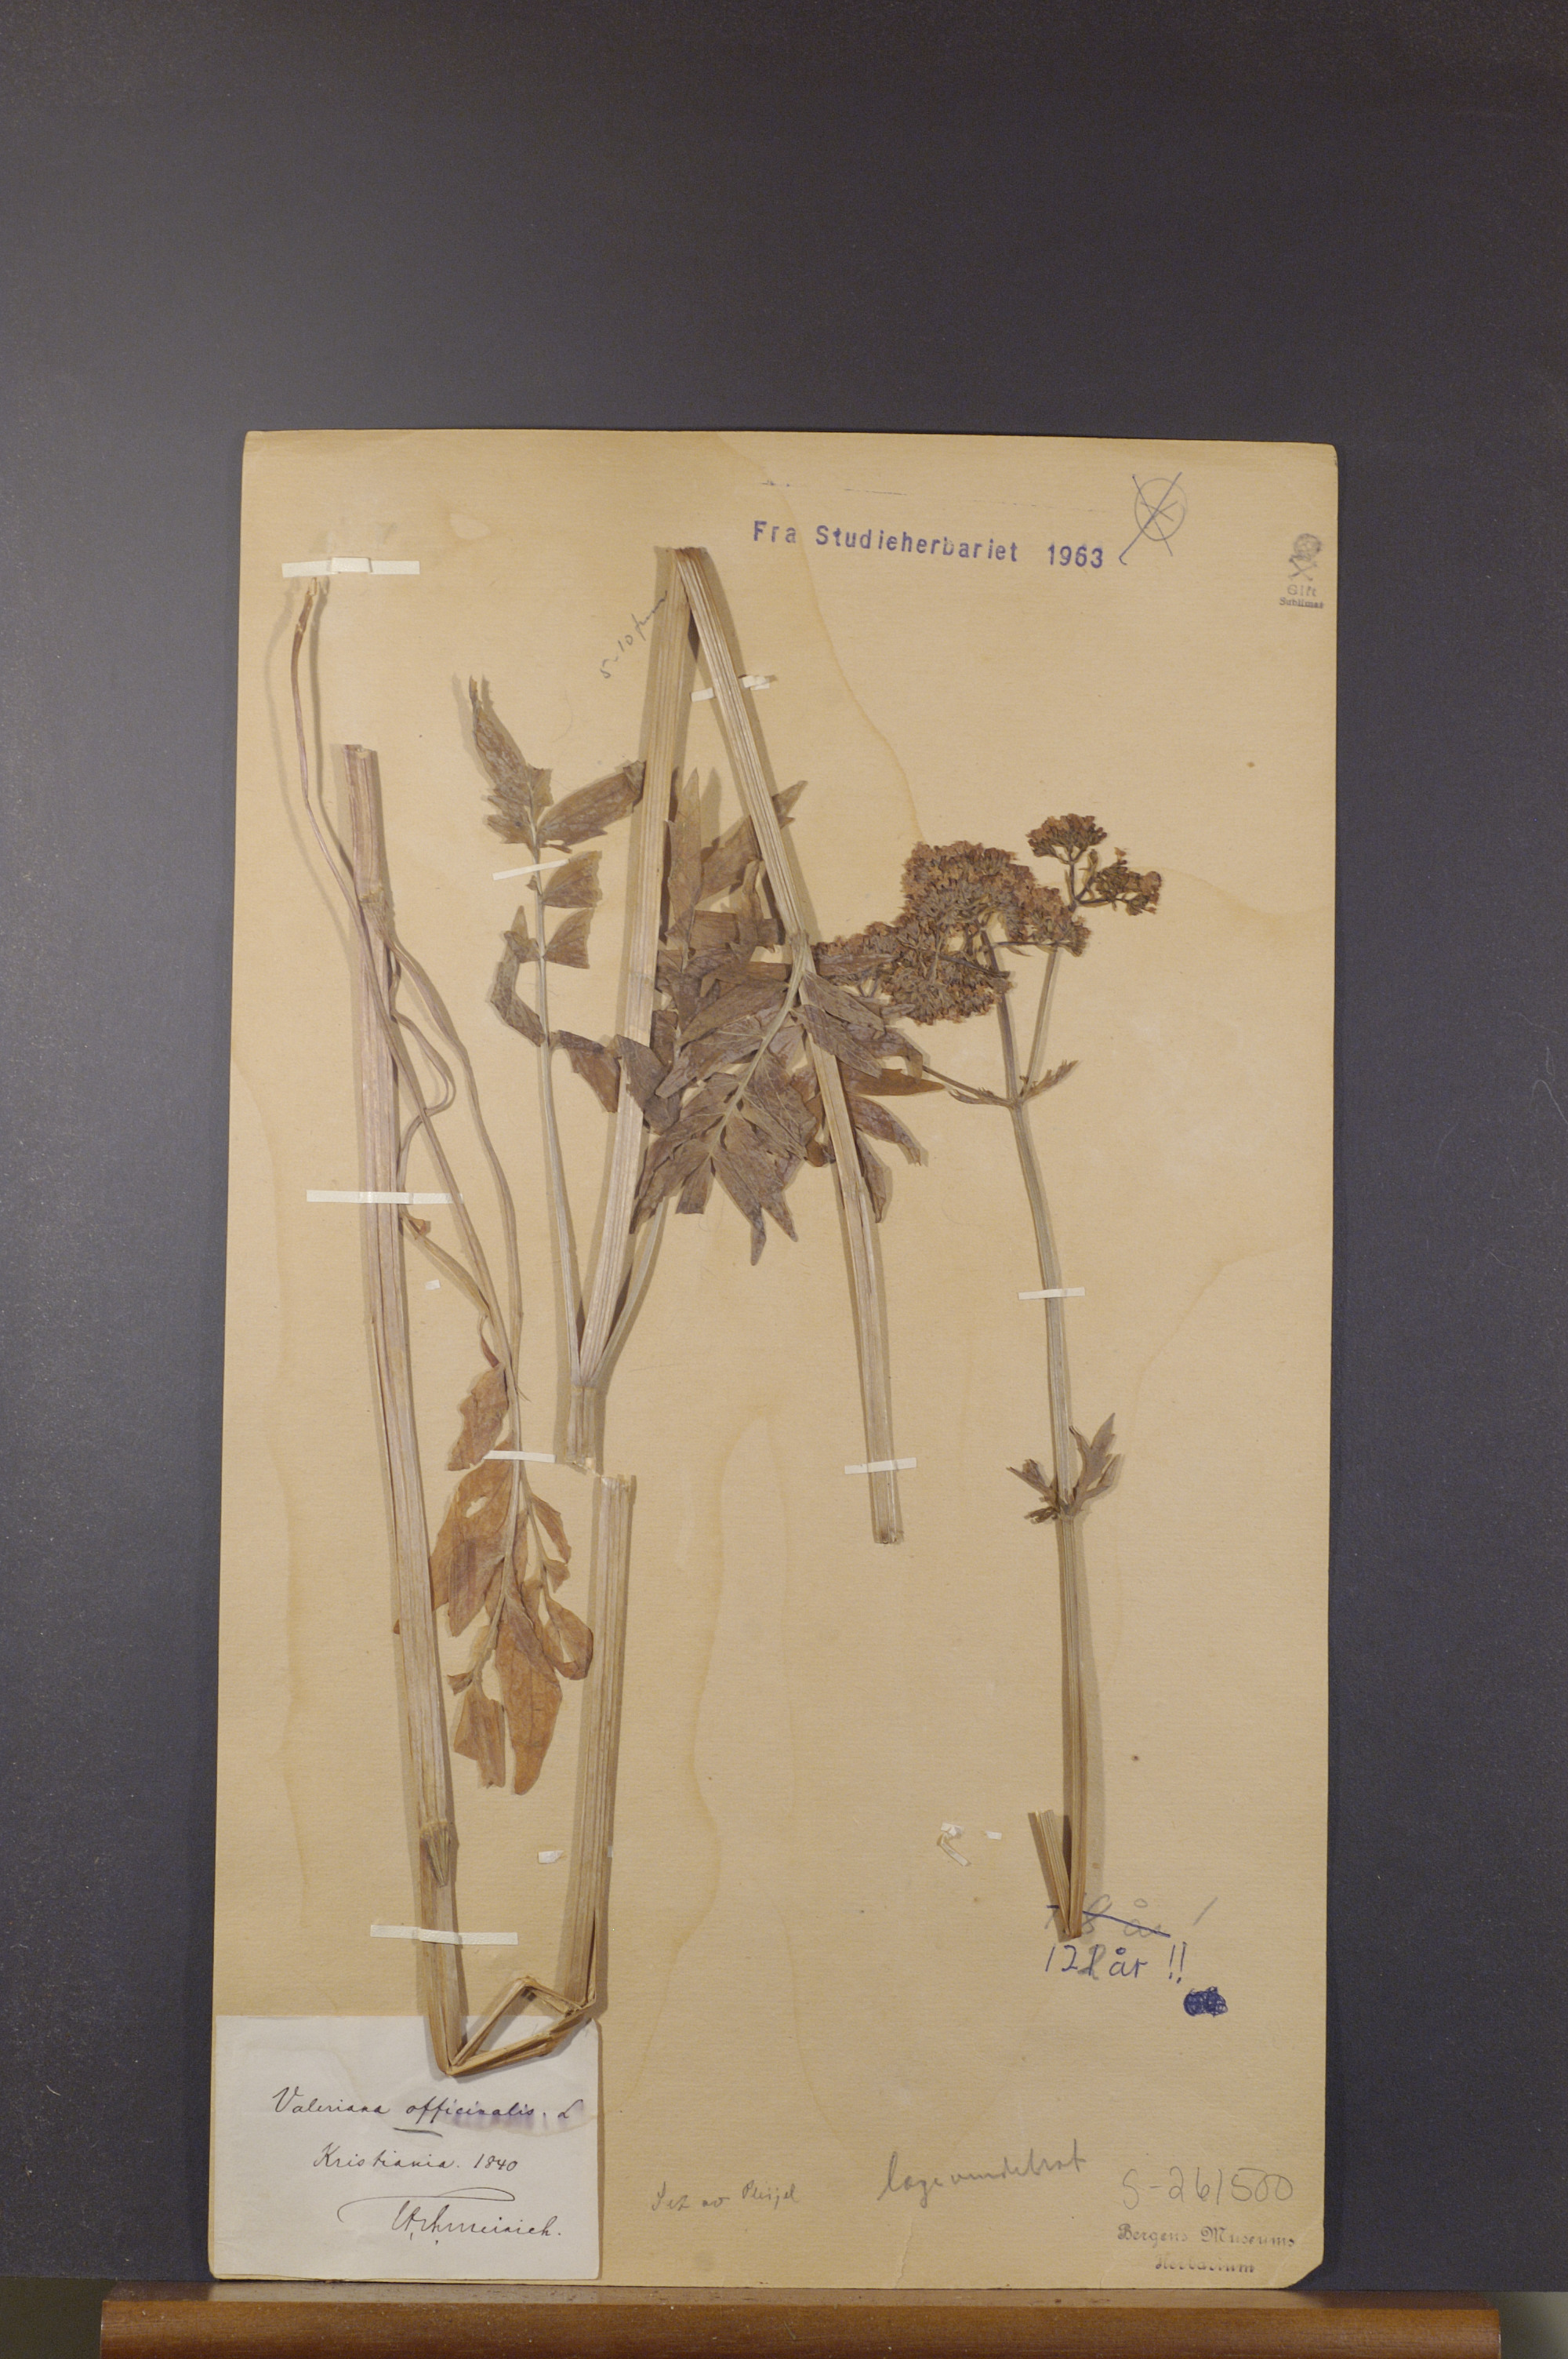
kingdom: Plantae
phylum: Tracheophyta
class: Magnoliopsida
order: Dipsacales
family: Caprifoliaceae
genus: Valeriana
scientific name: Valeriana officinalis
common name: Common valerian
